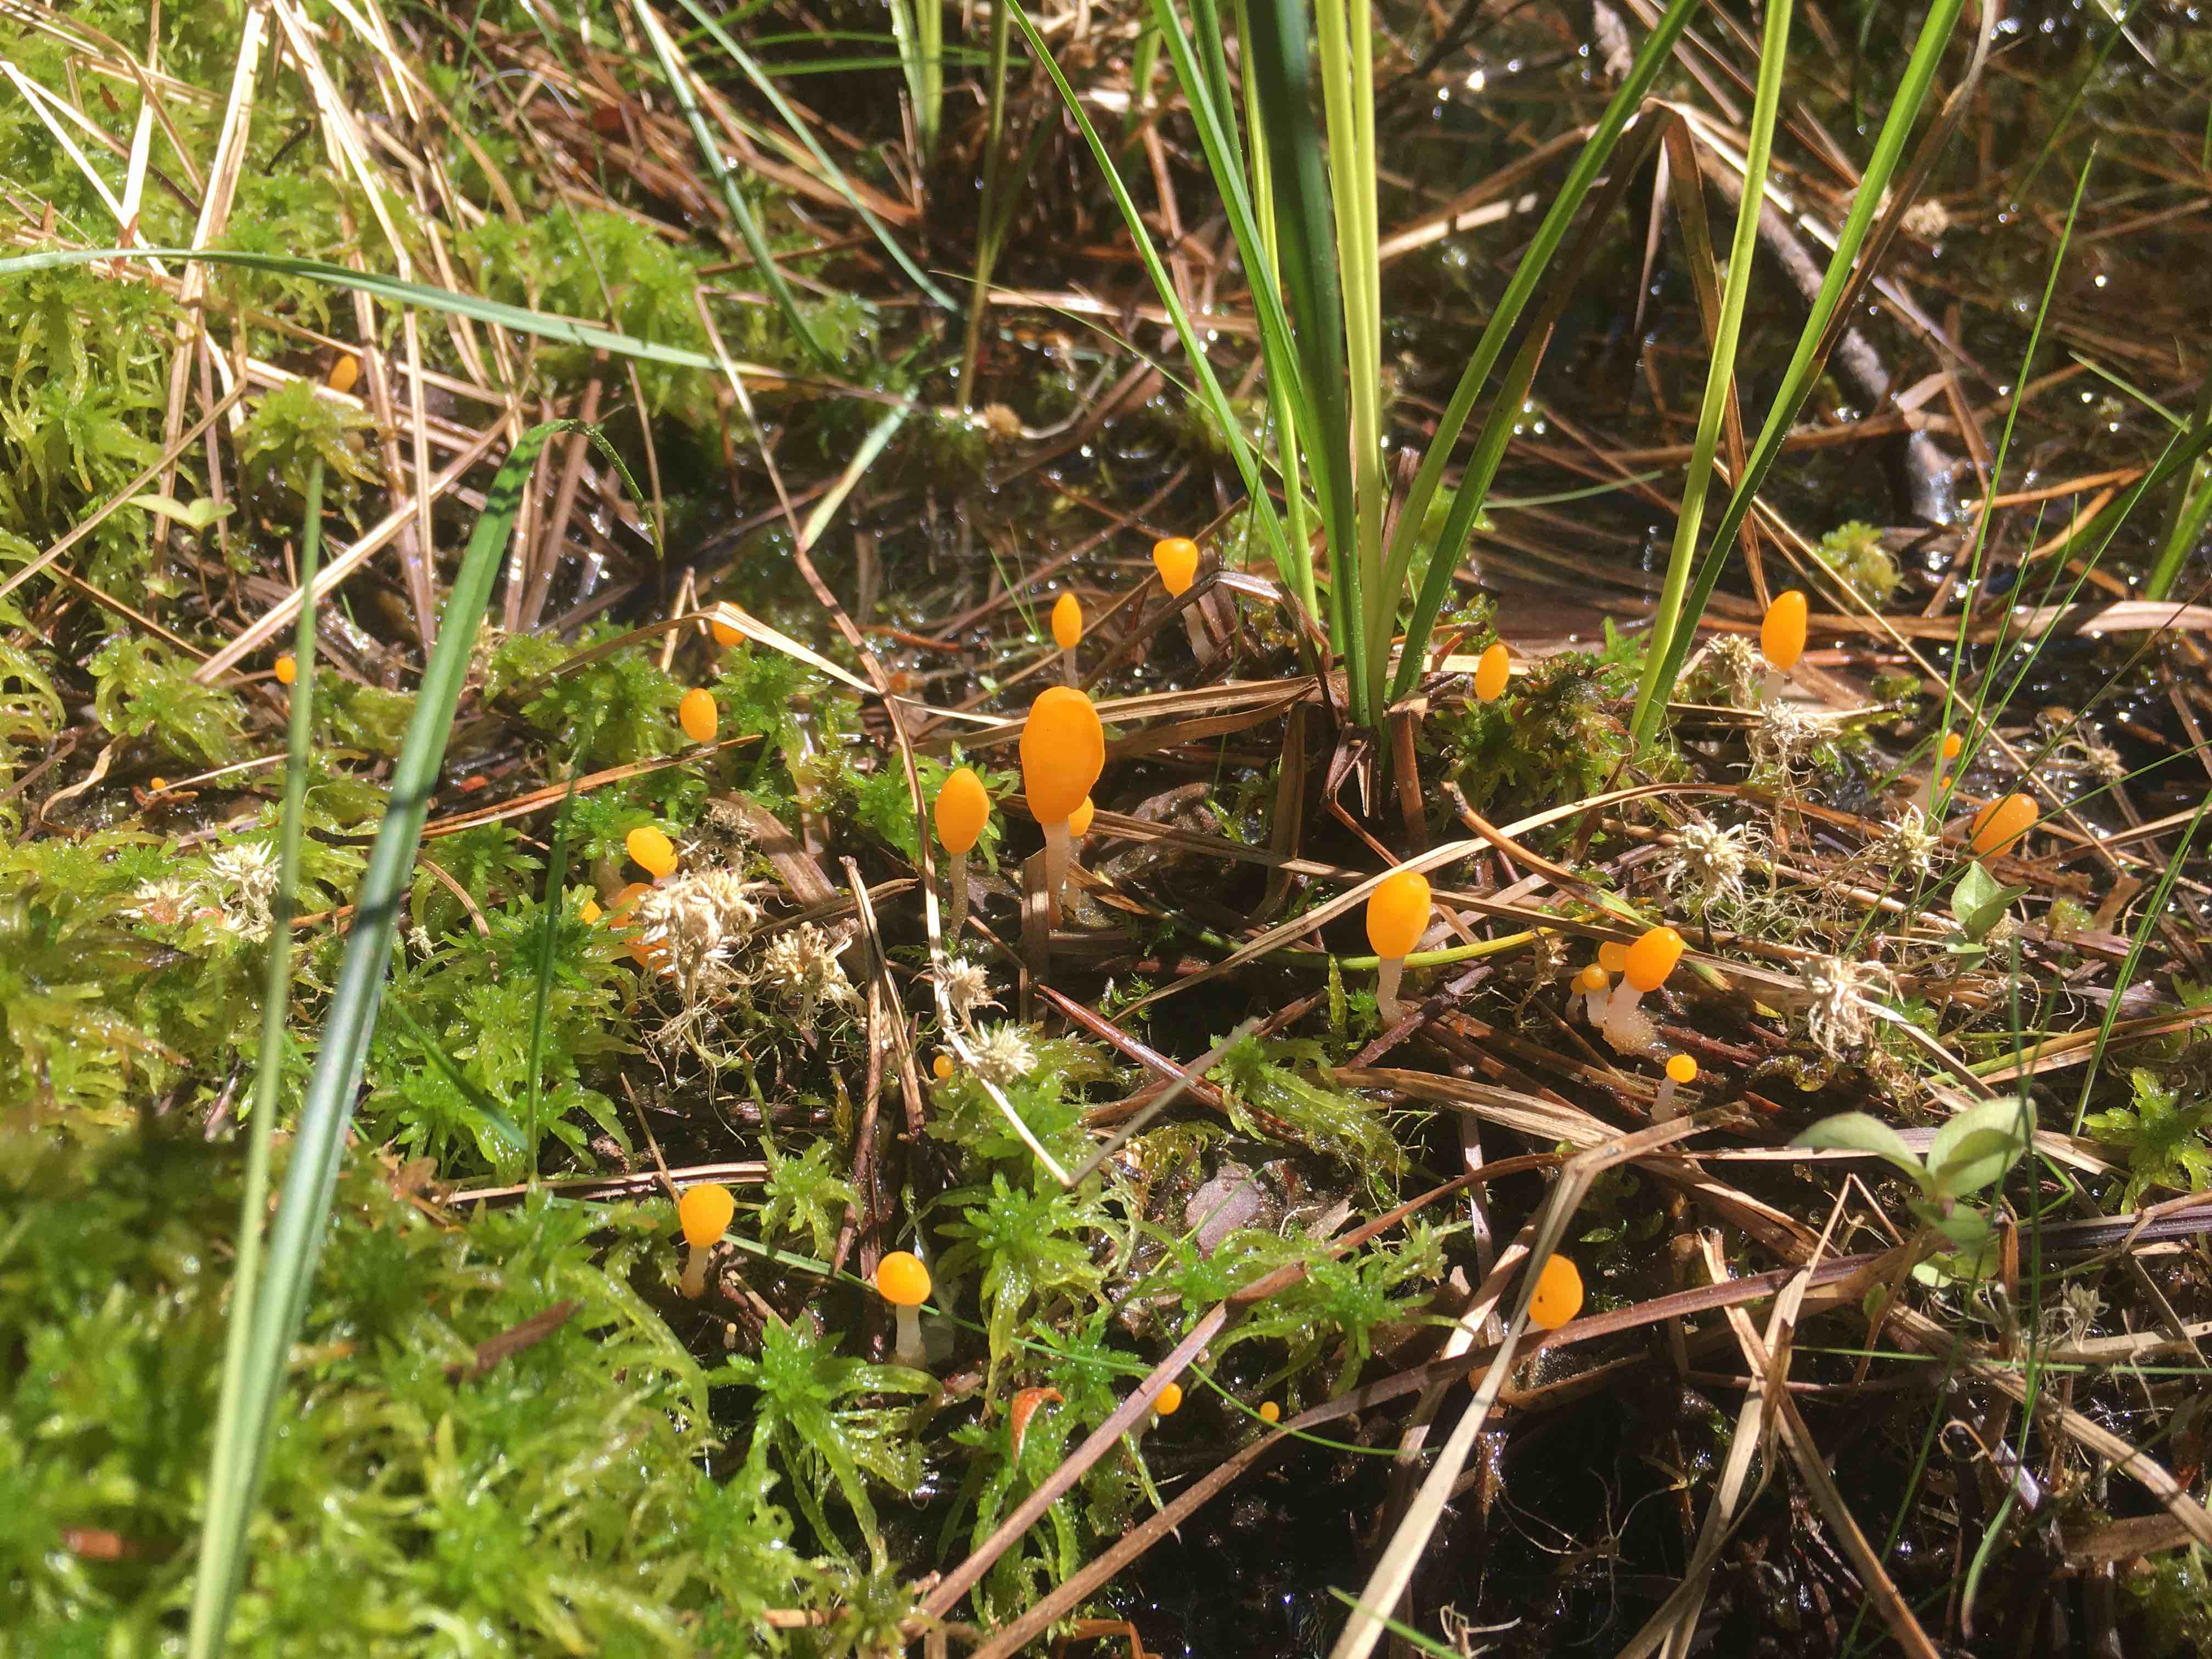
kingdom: Fungi
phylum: Ascomycota
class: Leotiomycetes
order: Helotiales
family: Cenangiaceae
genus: Mitrula
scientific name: Mitrula paludosa
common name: gul nøkketunge
